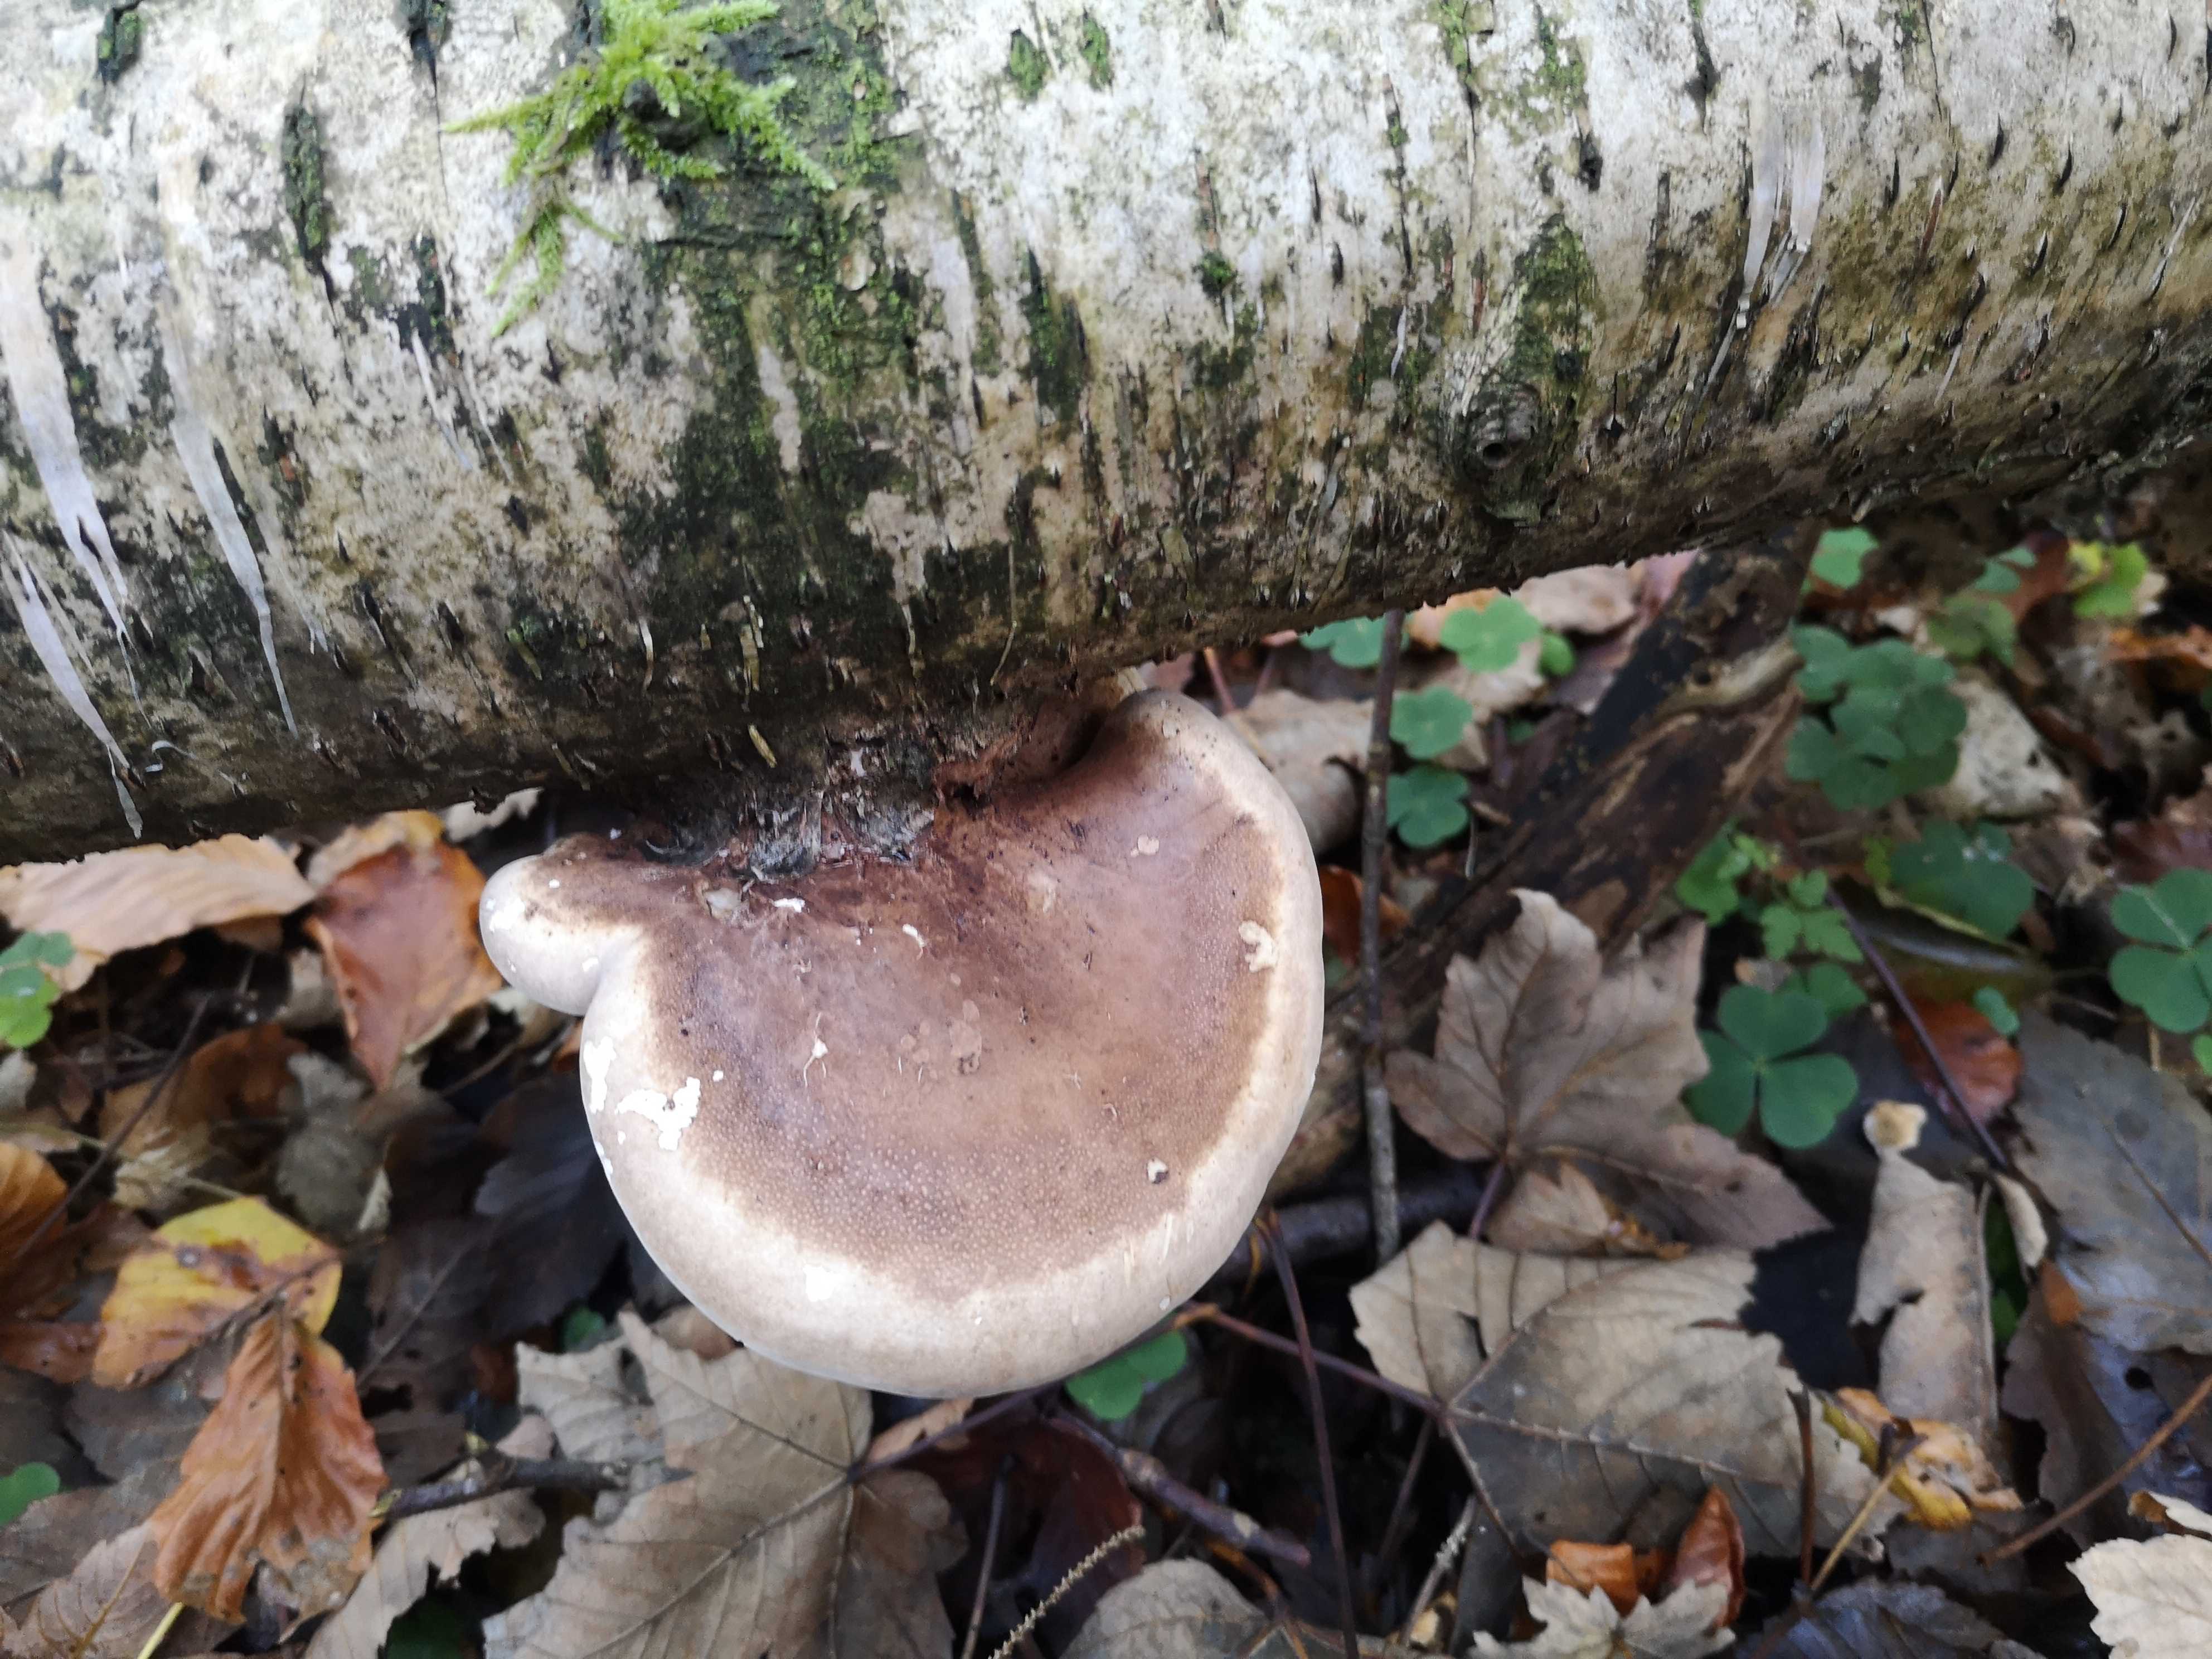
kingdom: Fungi
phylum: Basidiomycota
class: Agaricomycetes
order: Polyporales
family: Fomitopsidaceae
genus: Fomitopsis
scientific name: Fomitopsis betulina
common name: birkeporesvamp
